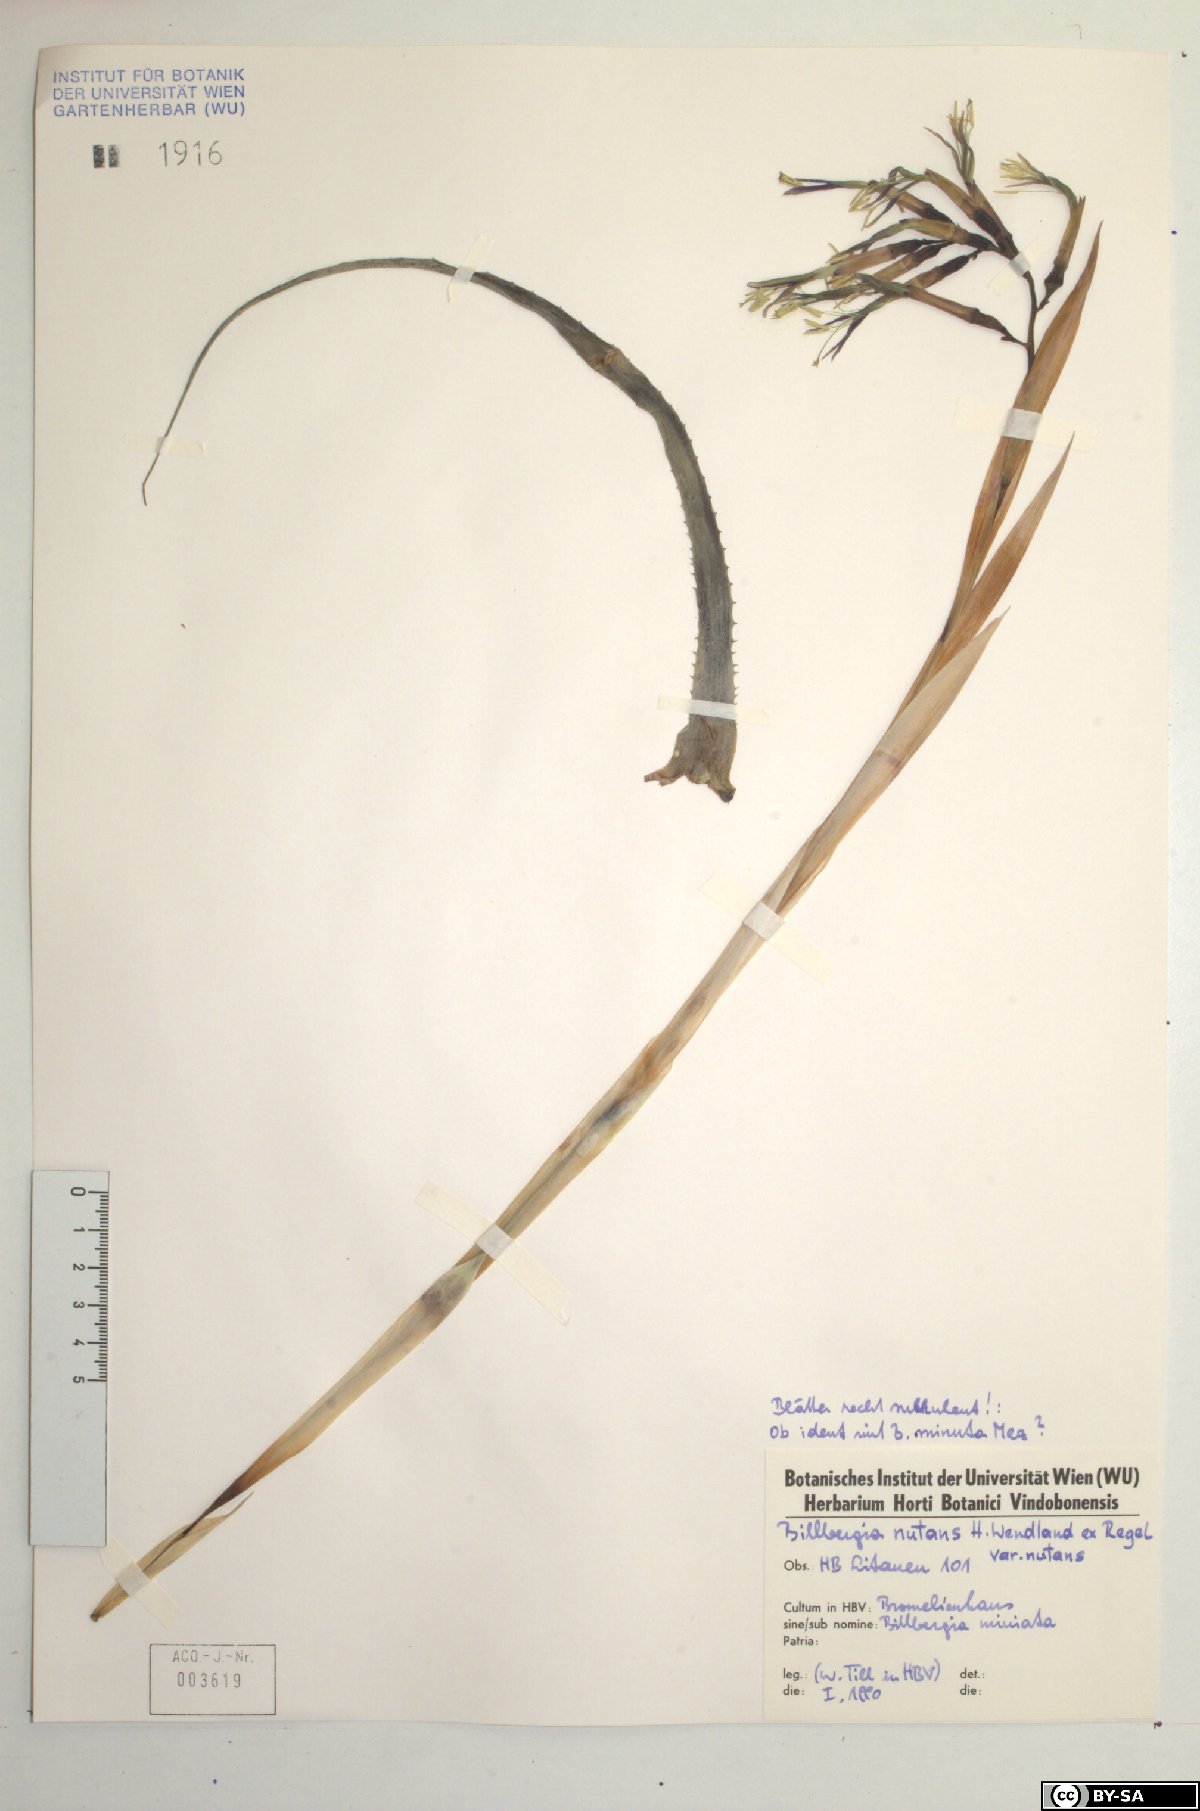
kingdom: Plantae
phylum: Tracheophyta
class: Liliopsida
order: Poales
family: Bromeliaceae
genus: Billbergia
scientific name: Billbergia horrida
